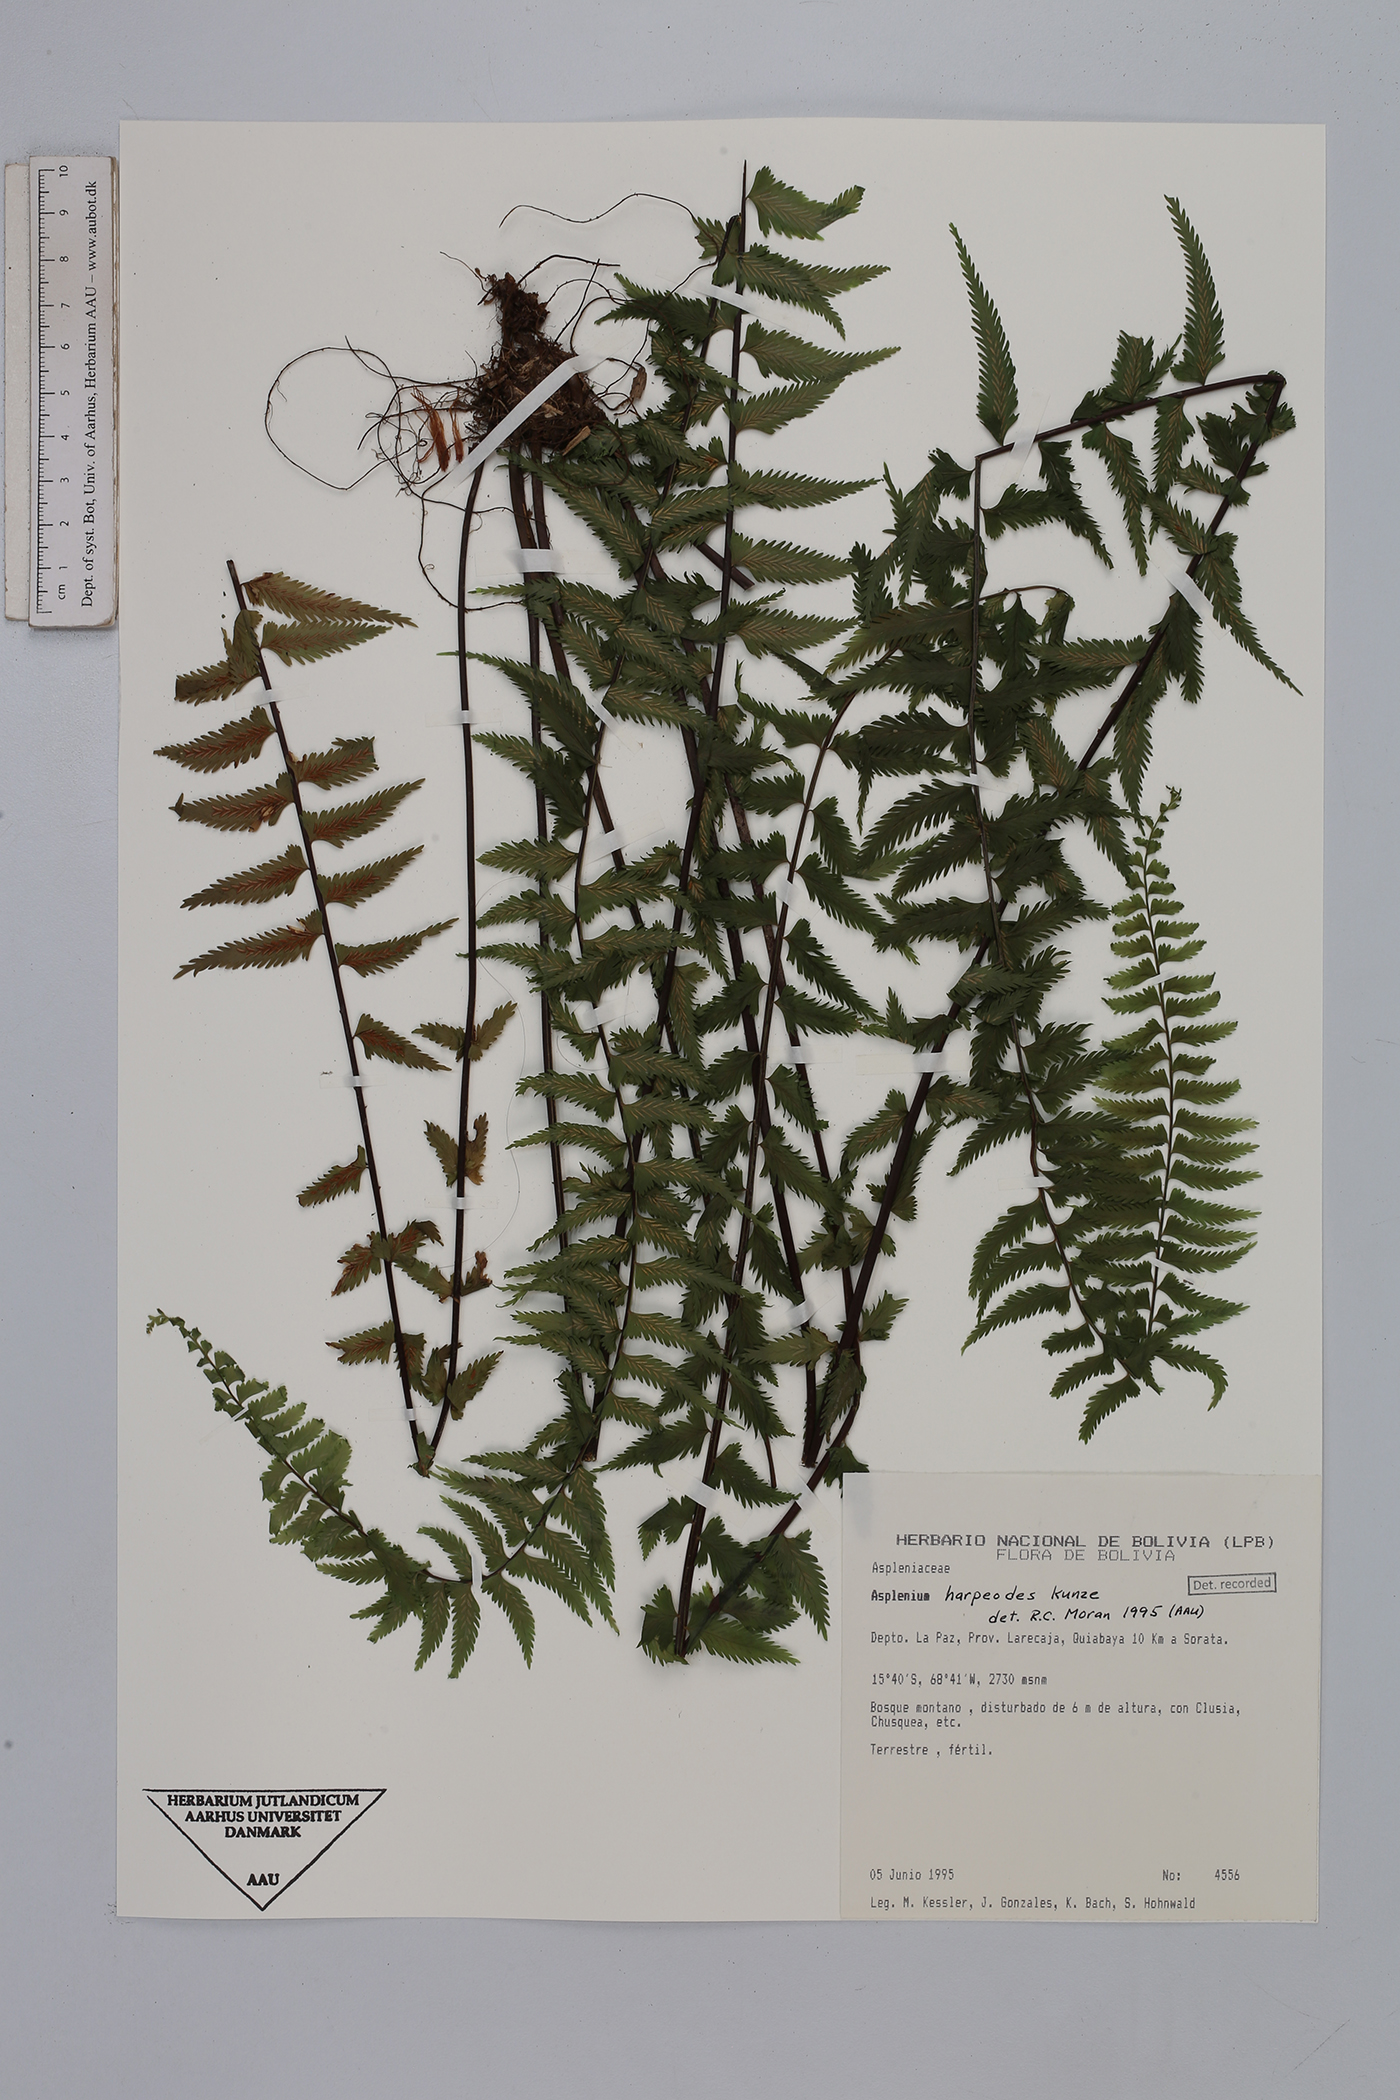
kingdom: Plantae
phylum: Tracheophyta
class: Polypodiopsida
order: Polypodiales
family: Aspleniaceae
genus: Asplenium
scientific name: Asplenium harpeodes
